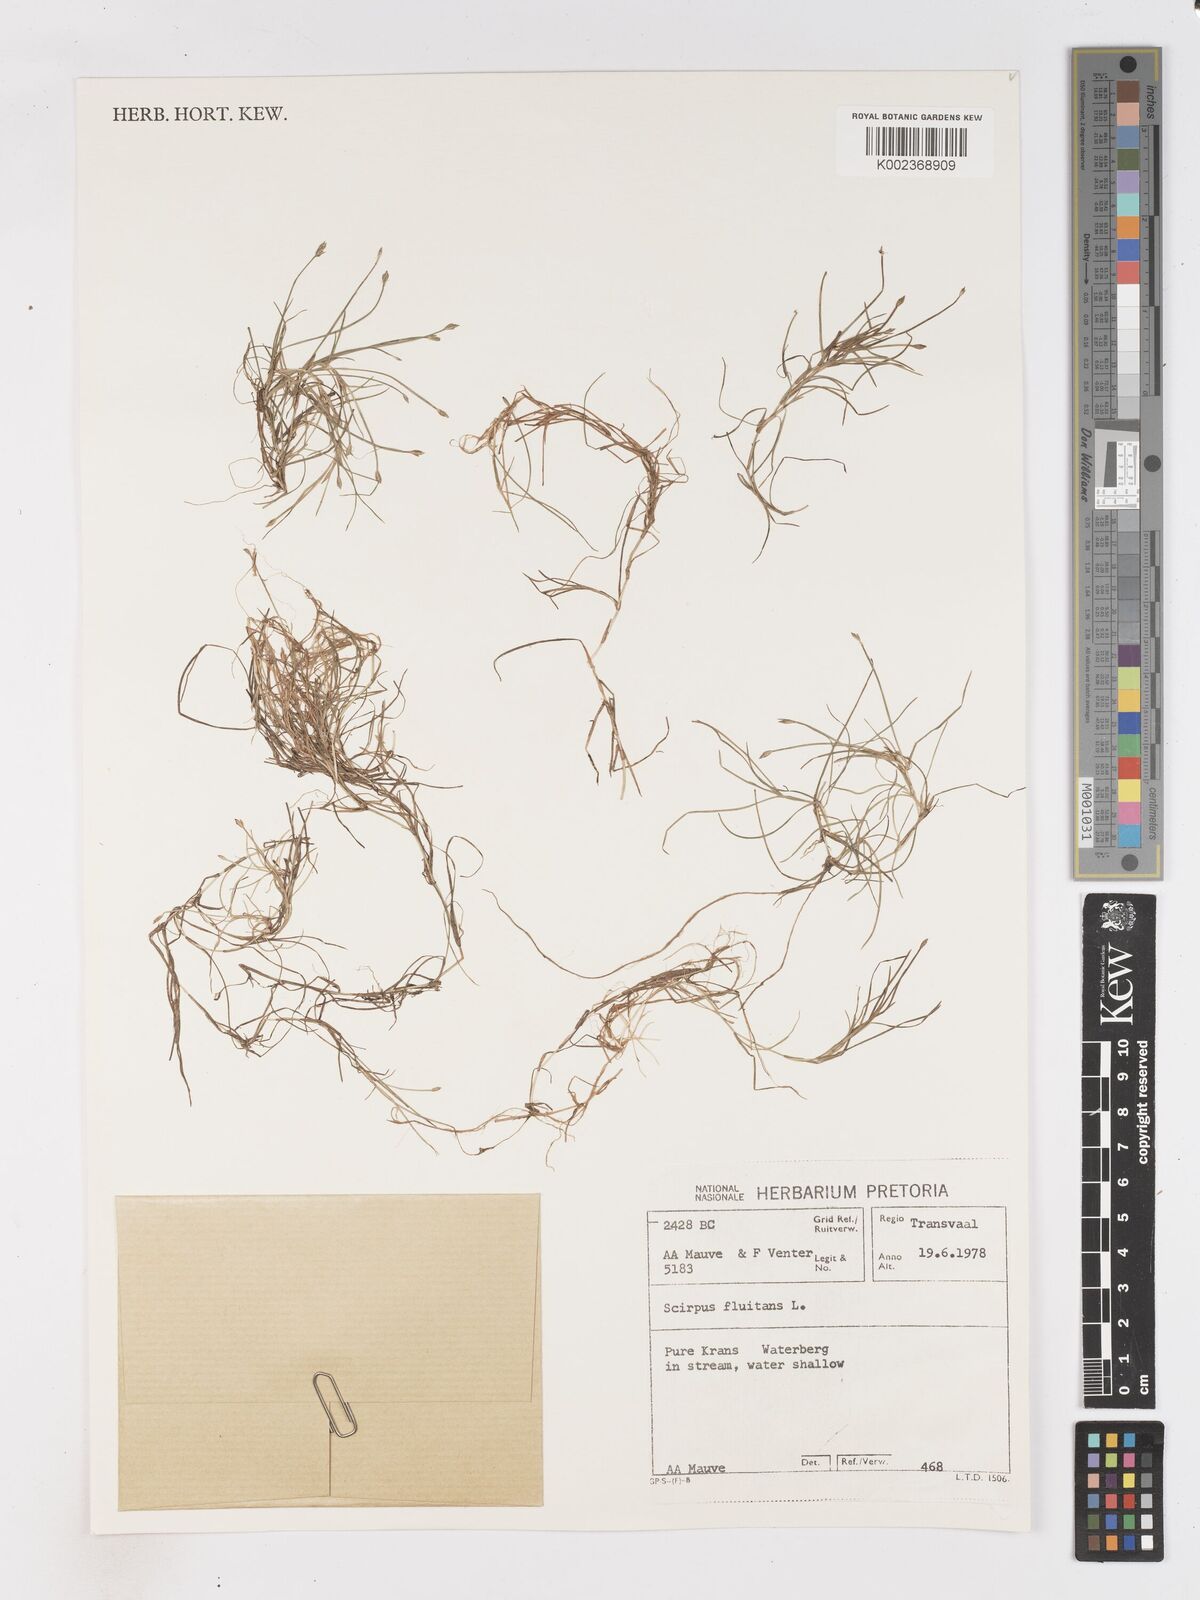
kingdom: Plantae
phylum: Tracheophyta
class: Liliopsida
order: Poales
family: Cyperaceae
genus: Isolepis
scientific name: Isolepis
